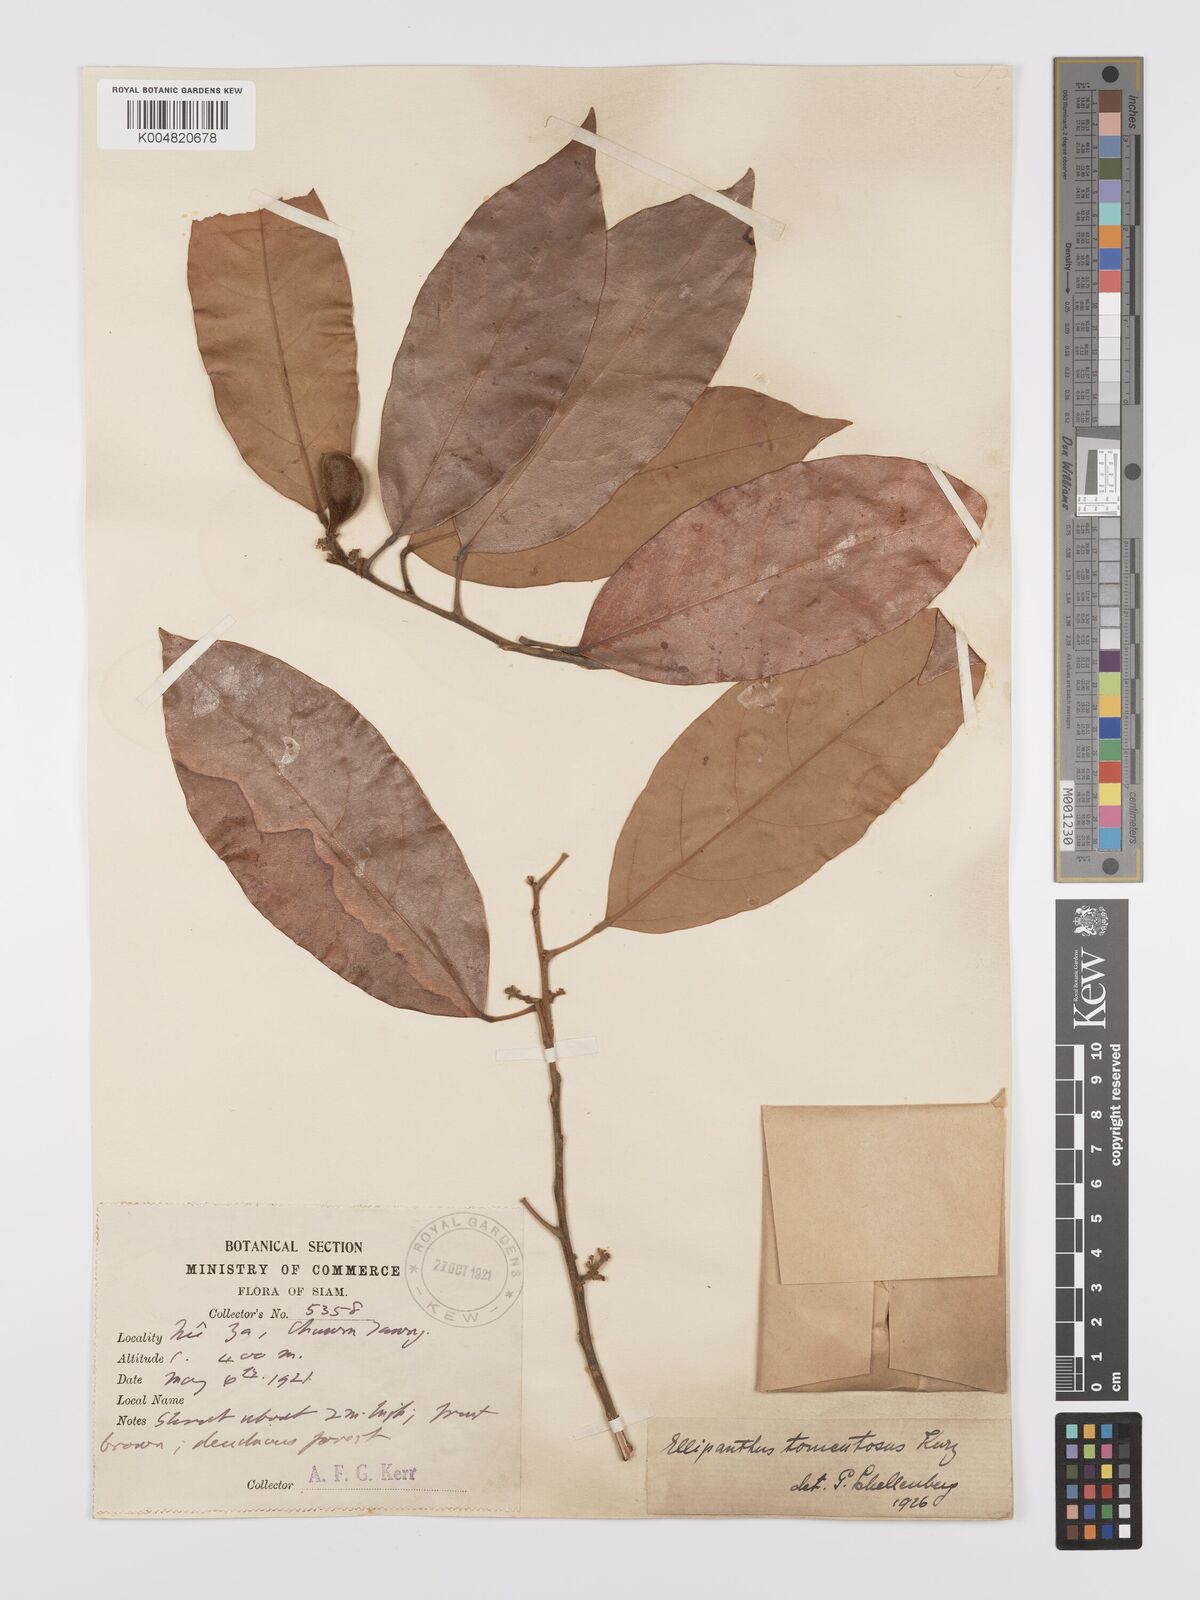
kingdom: Plantae
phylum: Tracheophyta
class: Magnoliopsida
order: Oxalidales
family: Connaraceae
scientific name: Connaraceae
